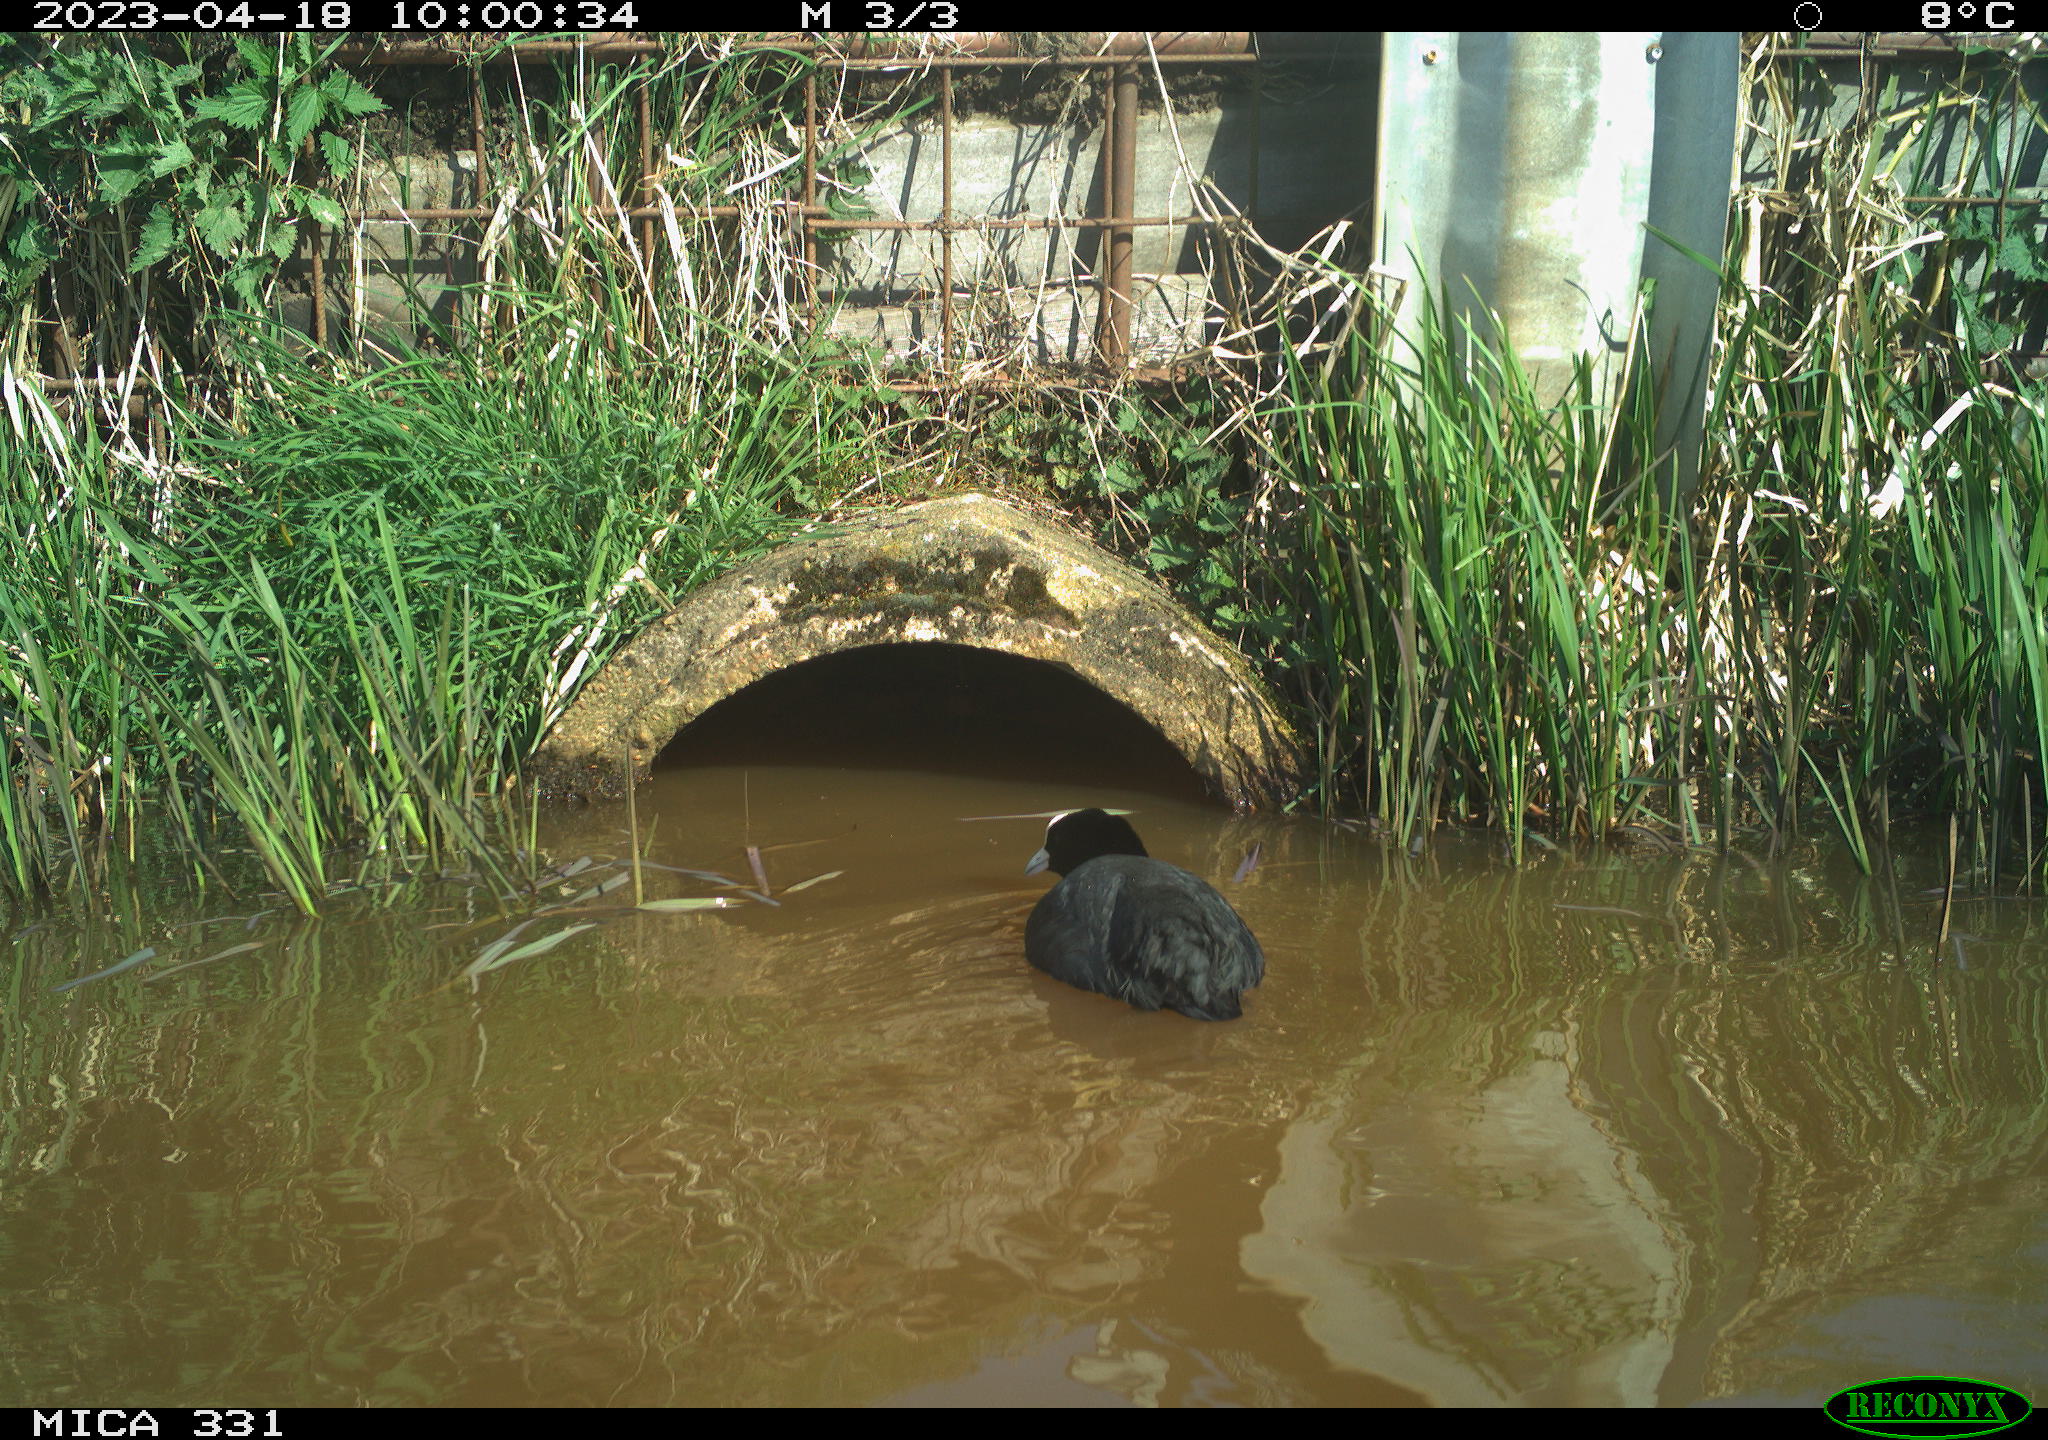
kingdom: Animalia
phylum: Chordata
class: Aves
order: Gruiformes
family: Rallidae
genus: Gallinula
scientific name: Gallinula chloropus
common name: Common moorhen
